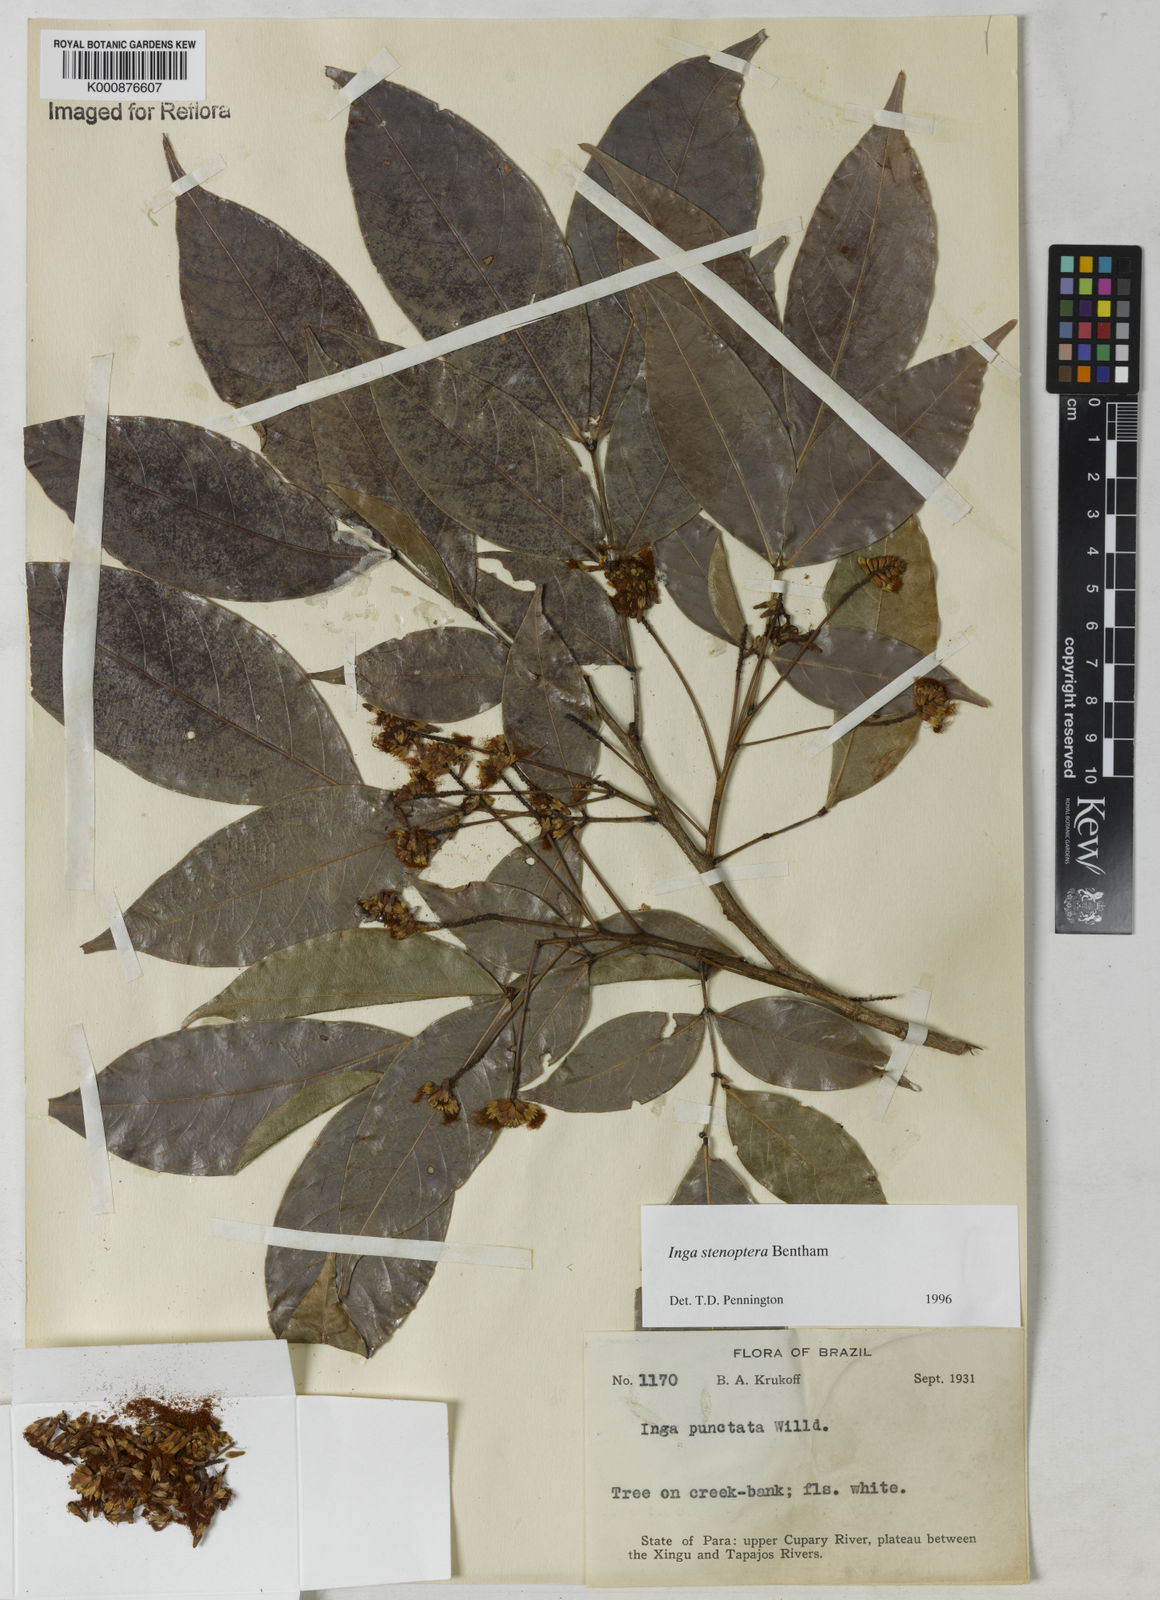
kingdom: Plantae
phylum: Tracheophyta
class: Magnoliopsida
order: Fabales
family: Fabaceae
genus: Inga
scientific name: Inga stenoptera
